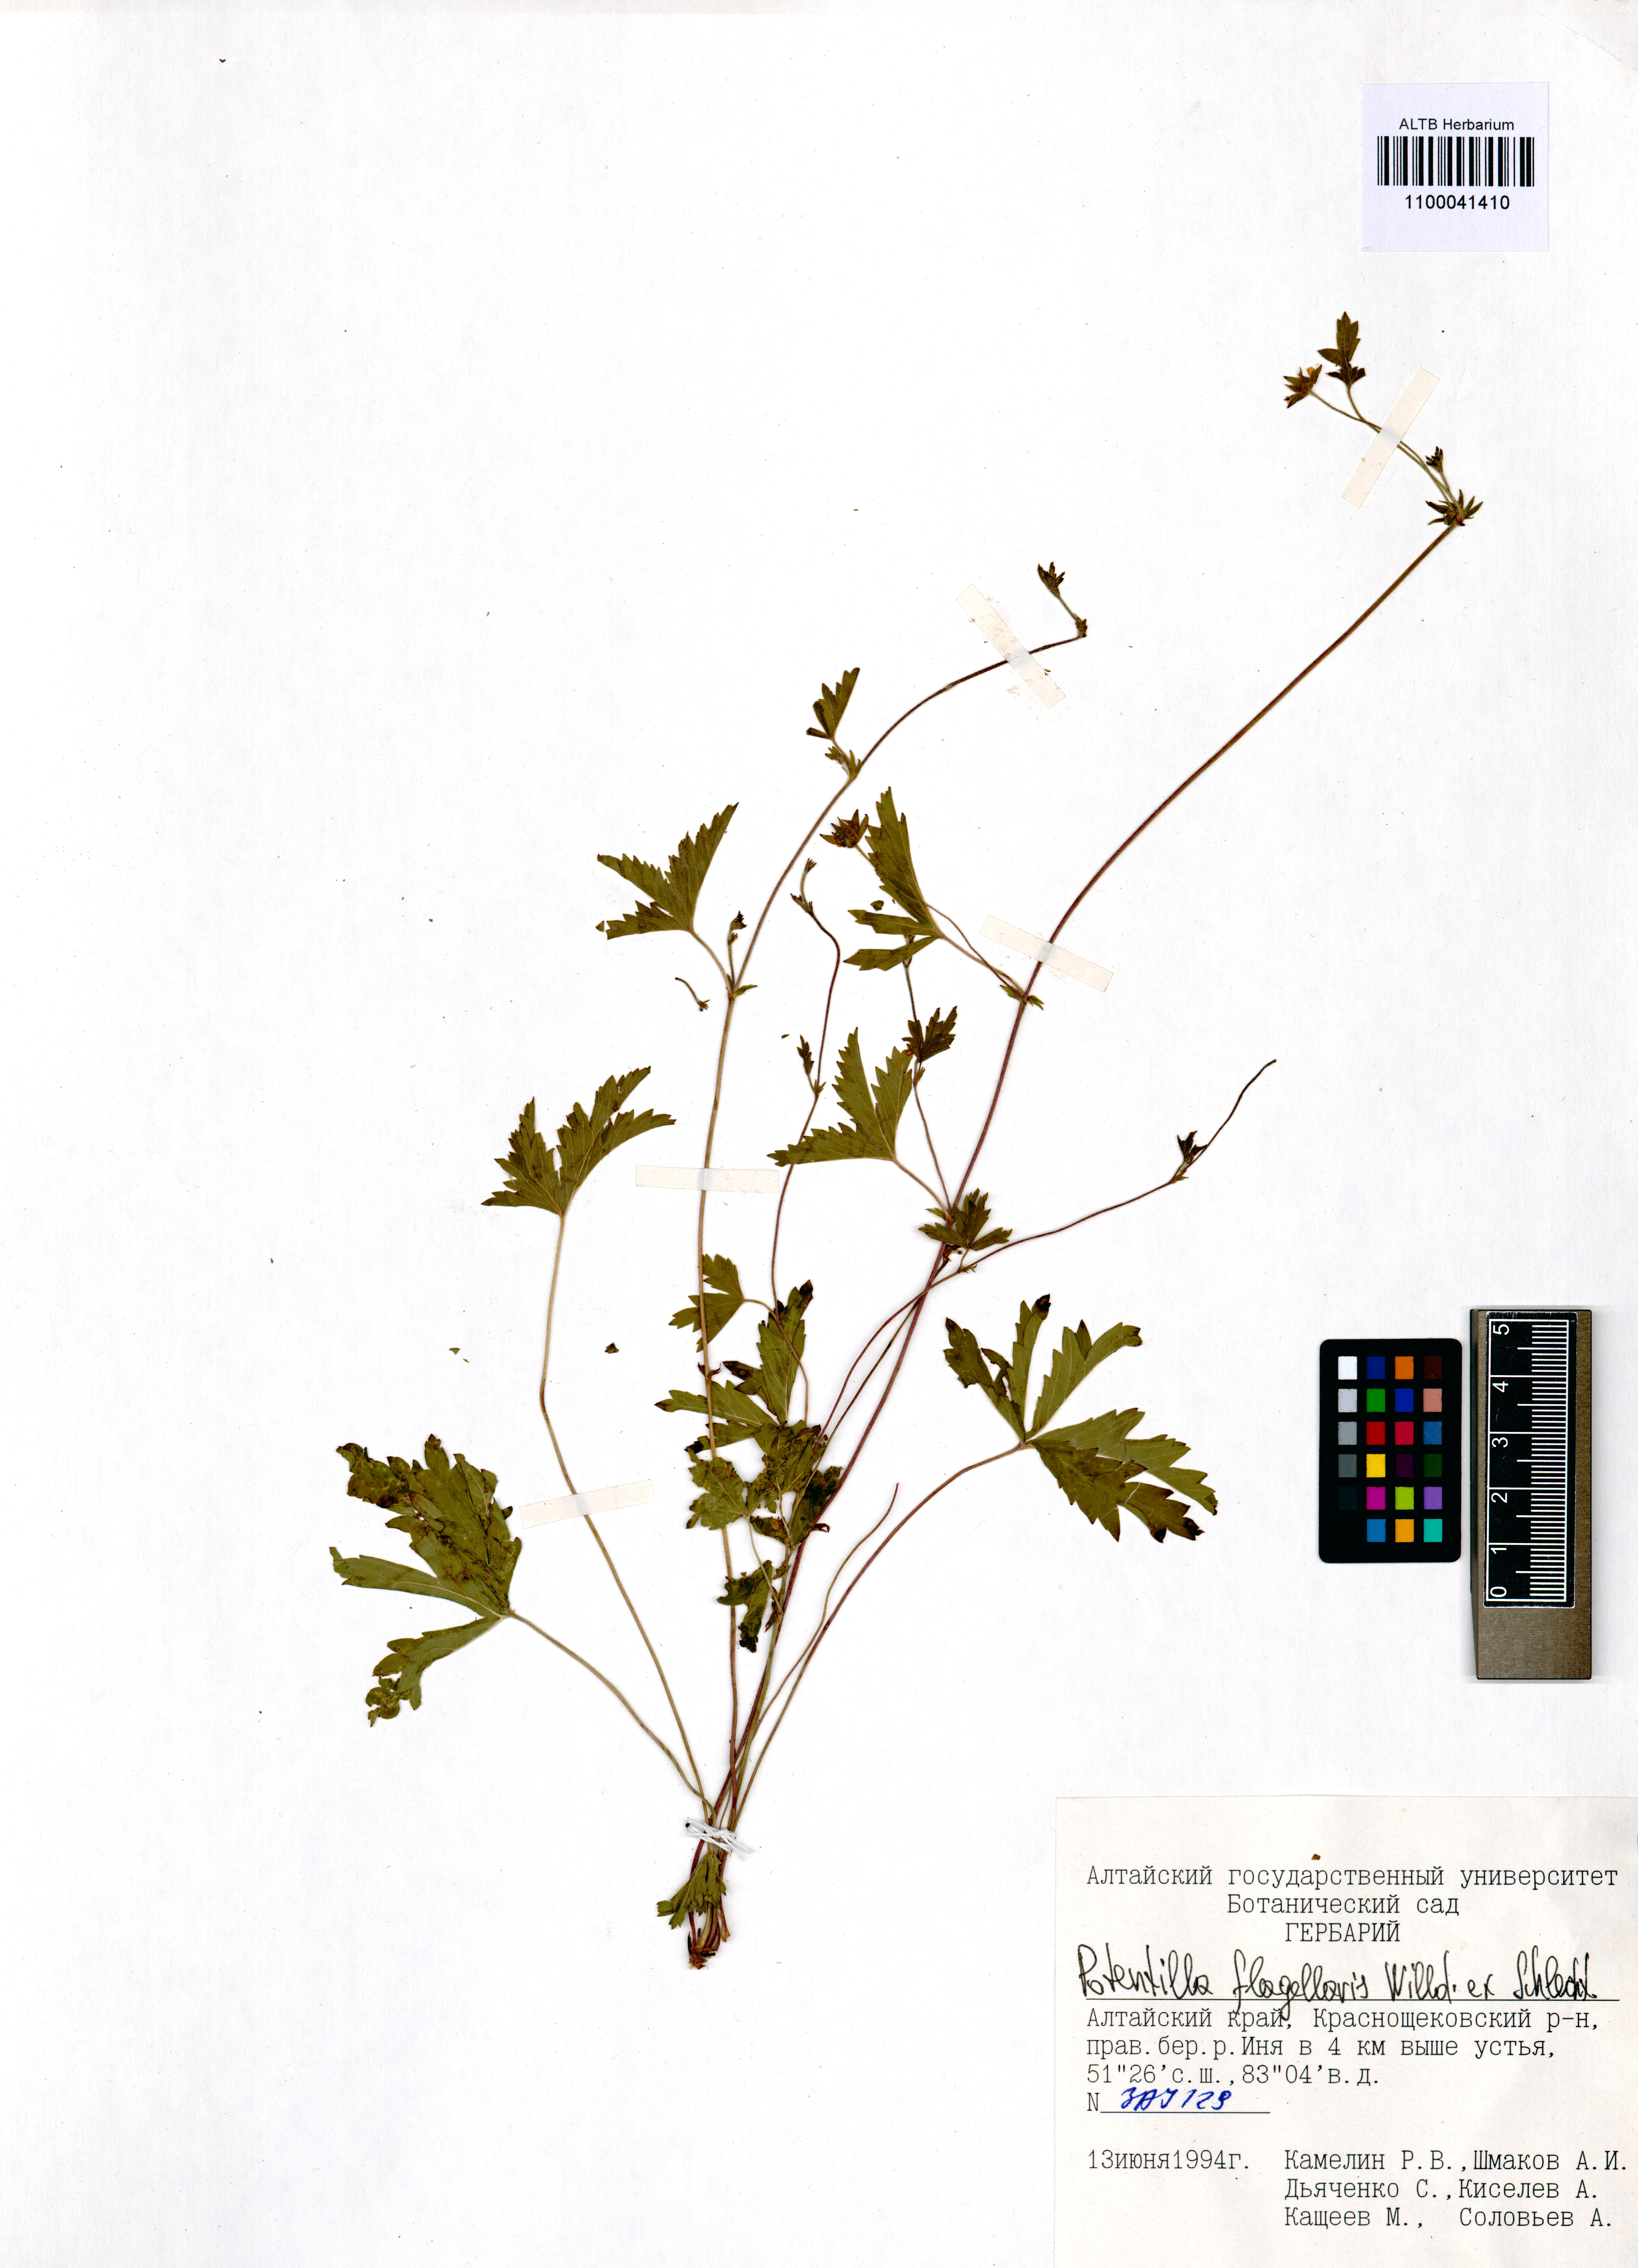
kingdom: Plantae
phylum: Tracheophyta
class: Magnoliopsida
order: Rosales
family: Rosaceae
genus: Potentilla
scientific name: Potentilla flagellaris
